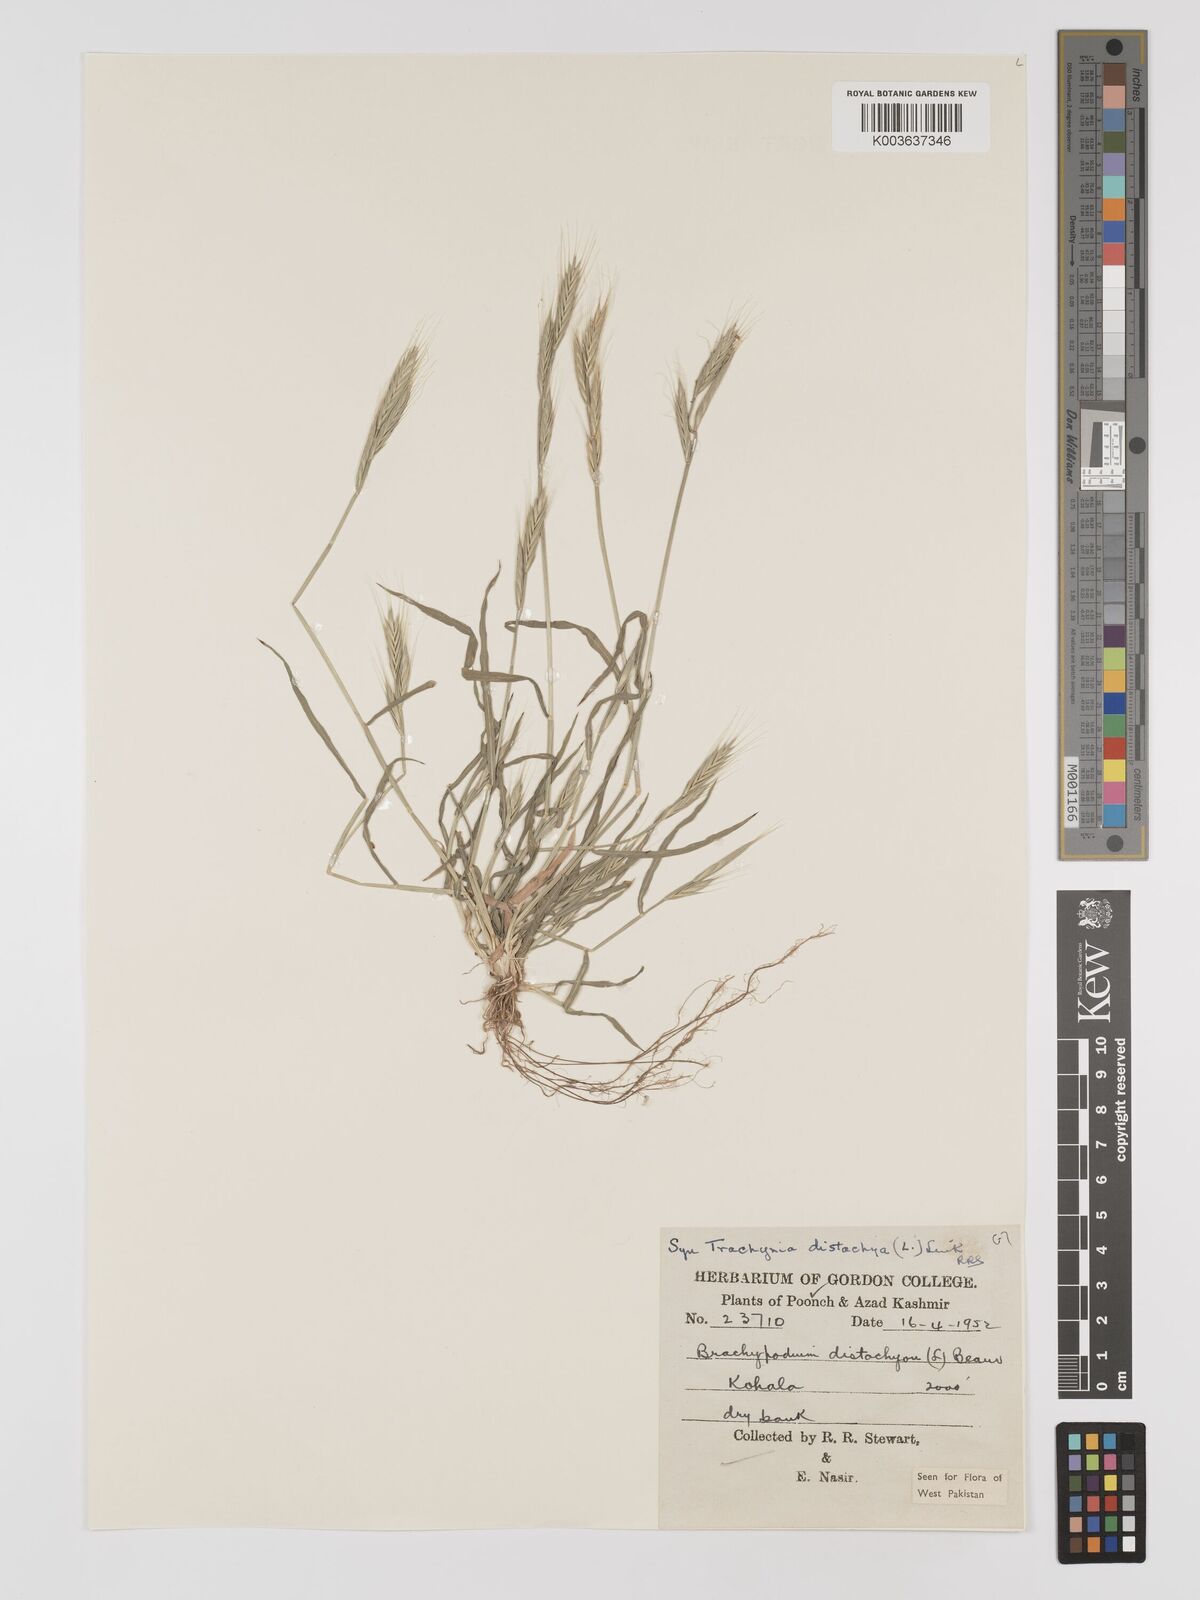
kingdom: Plantae
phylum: Tracheophyta
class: Liliopsida
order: Poales
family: Poaceae
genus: Brachypodium
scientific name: Brachypodium distachyon
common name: Stiff brome
